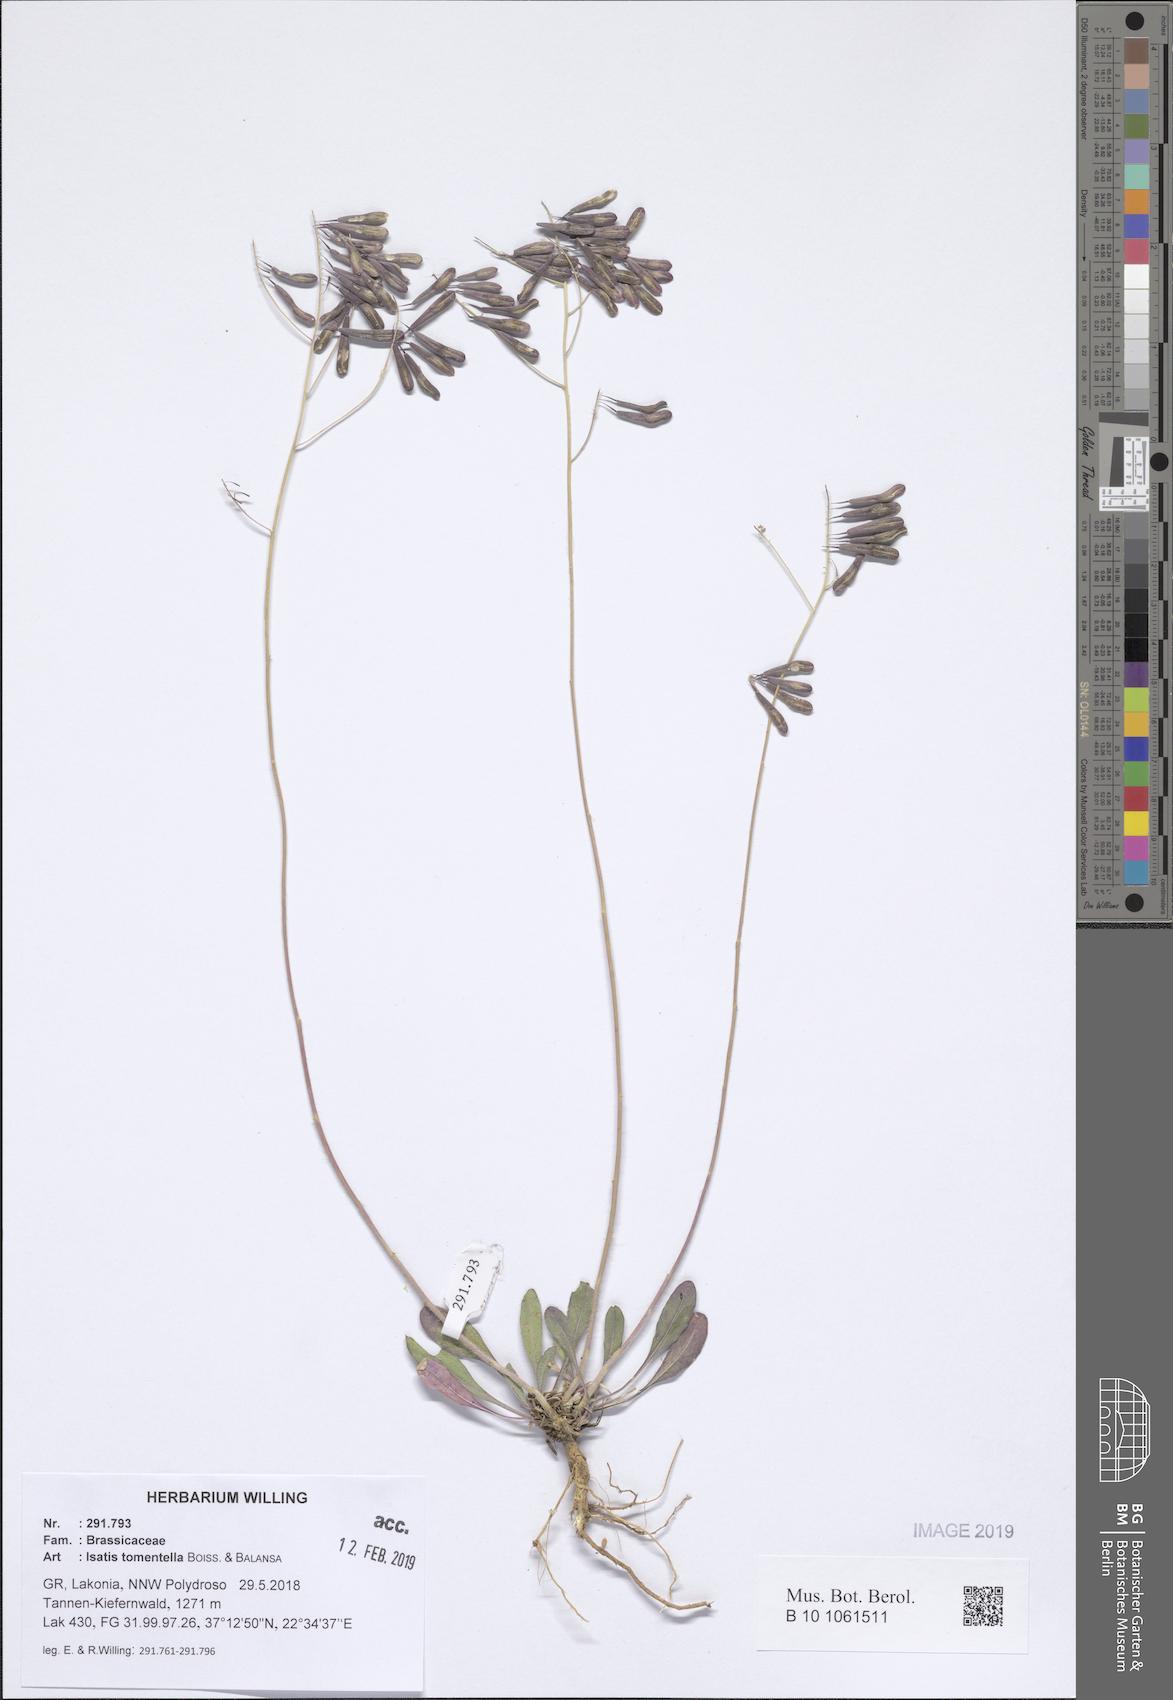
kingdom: Plantae
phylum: Tracheophyta
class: Magnoliopsida
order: Brassicales
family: Brassicaceae
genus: Isatis
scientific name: Isatis tomentella
